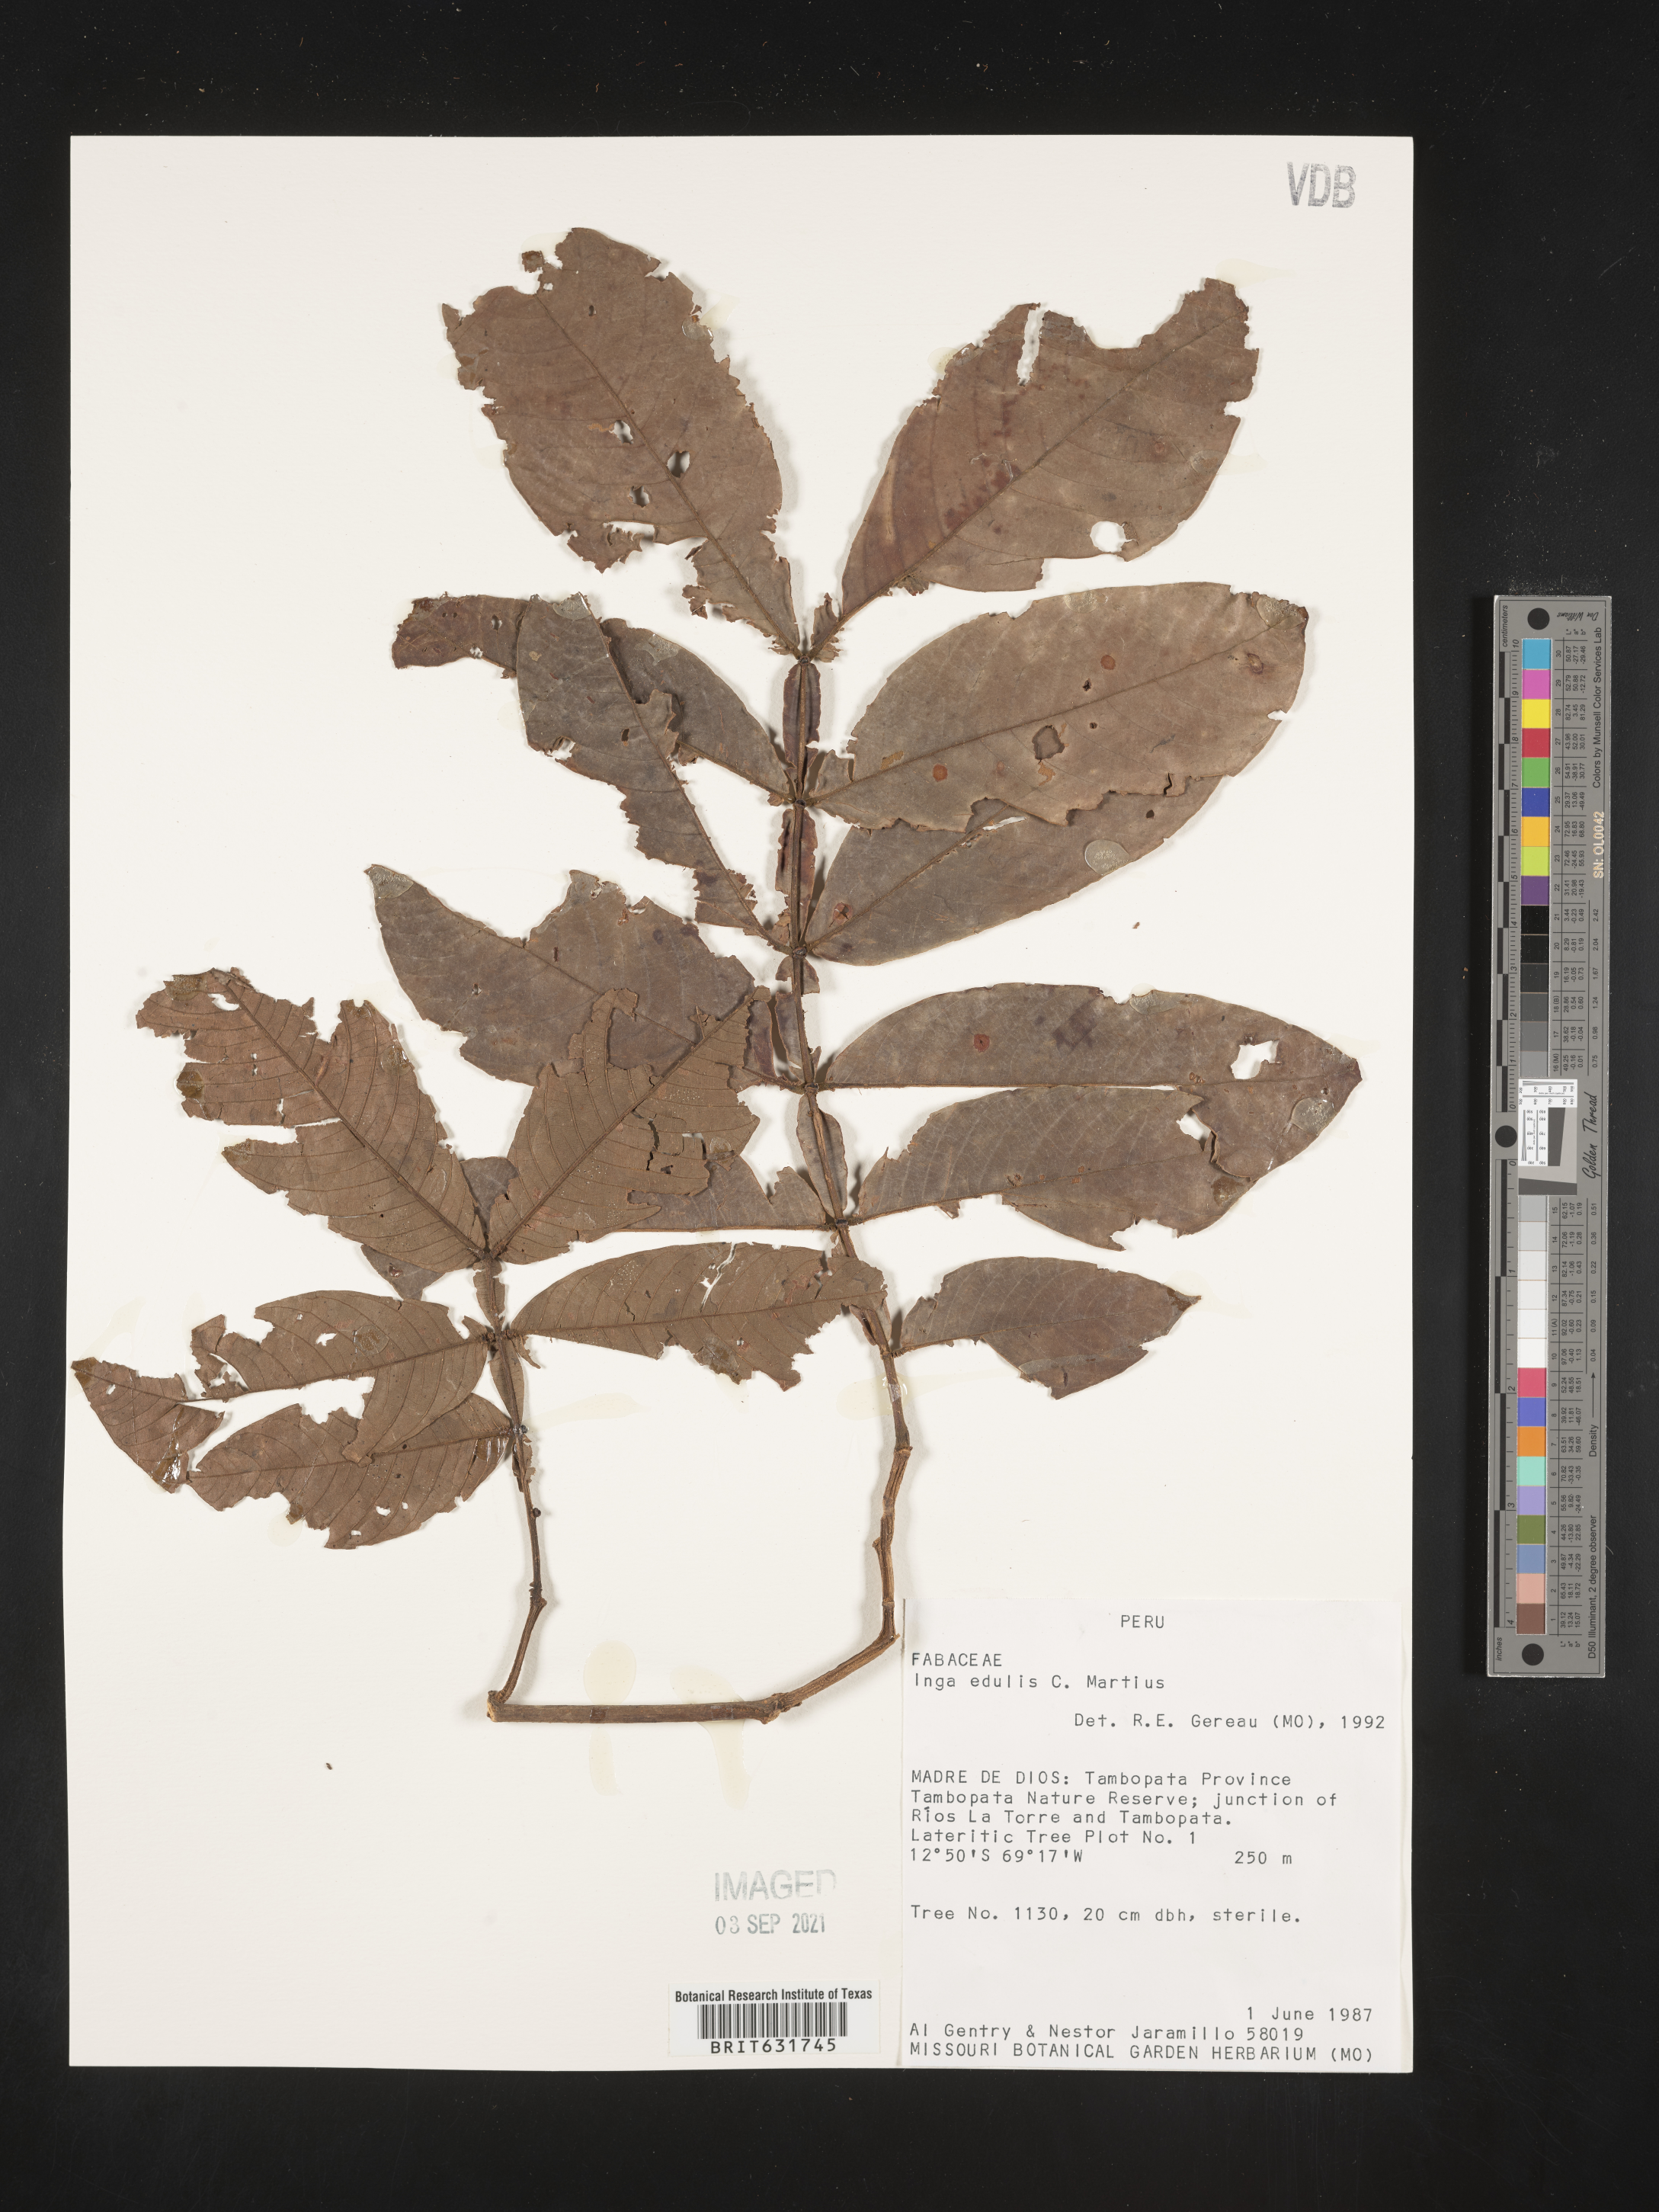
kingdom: Plantae
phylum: Tracheophyta
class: Magnoliopsida
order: Fabales
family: Fabaceae
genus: Inga
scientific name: Inga
